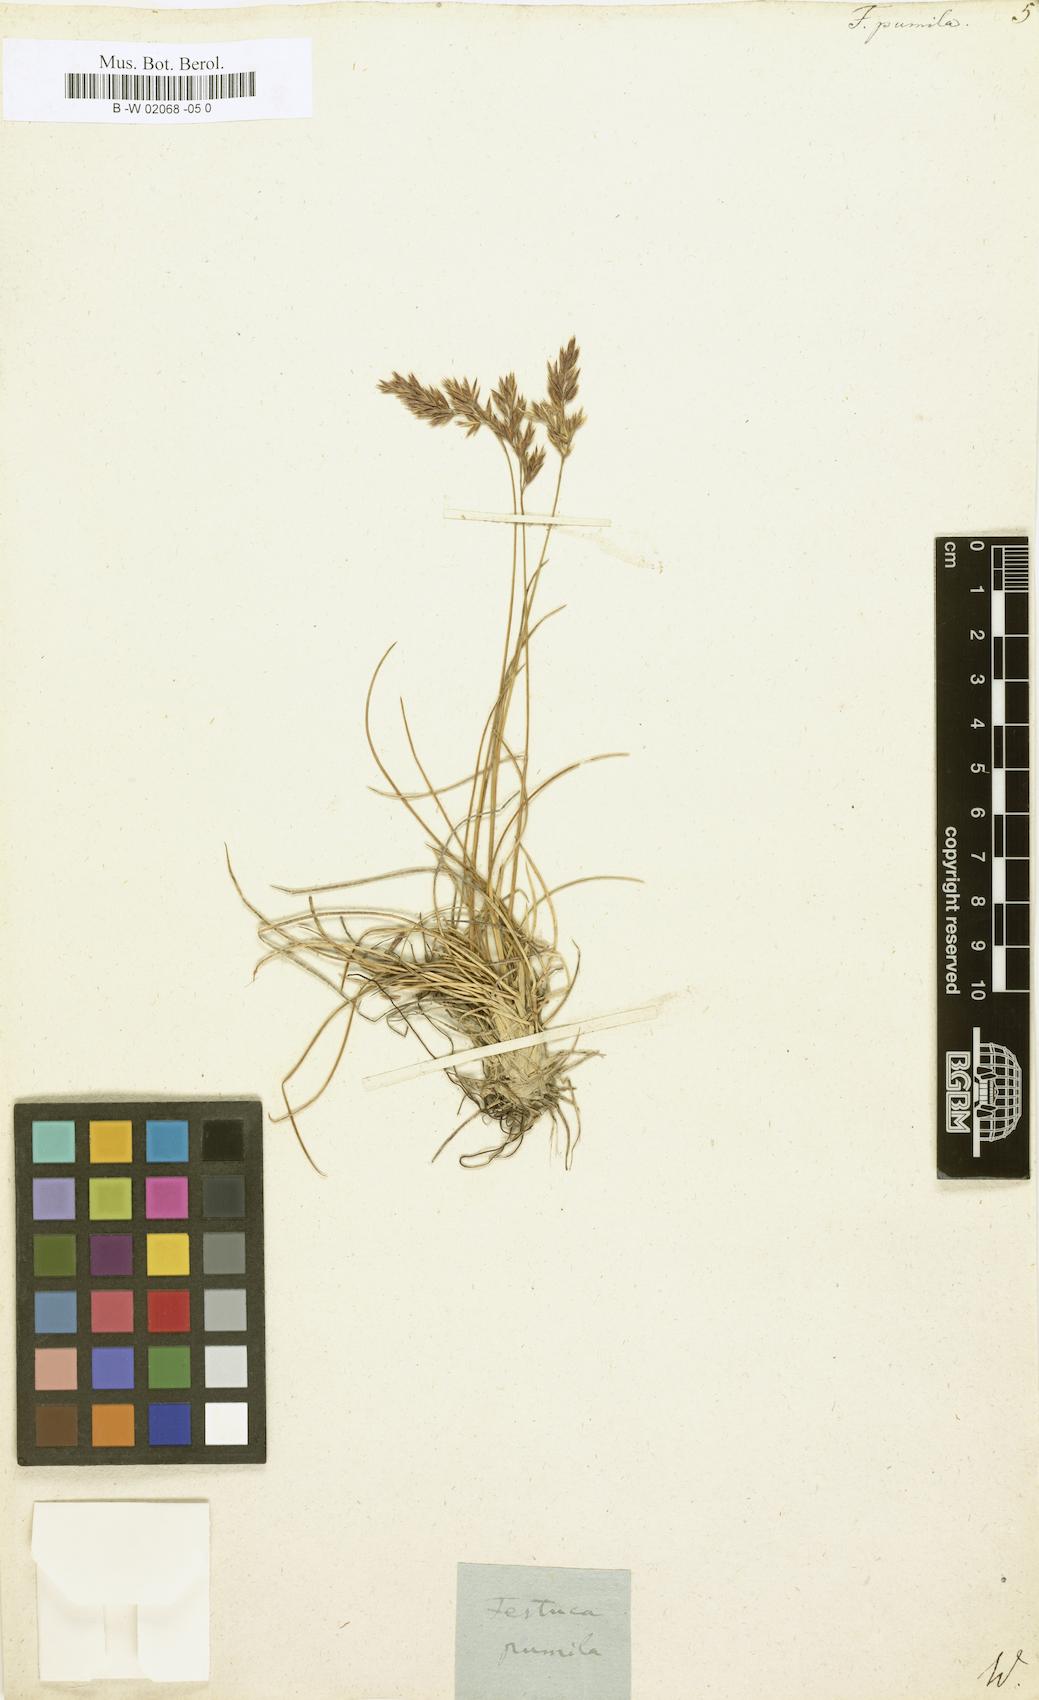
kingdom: Plantae
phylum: Tracheophyta
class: Liliopsida
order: Poales
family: Poaceae
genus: Festuca
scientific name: Festuca
